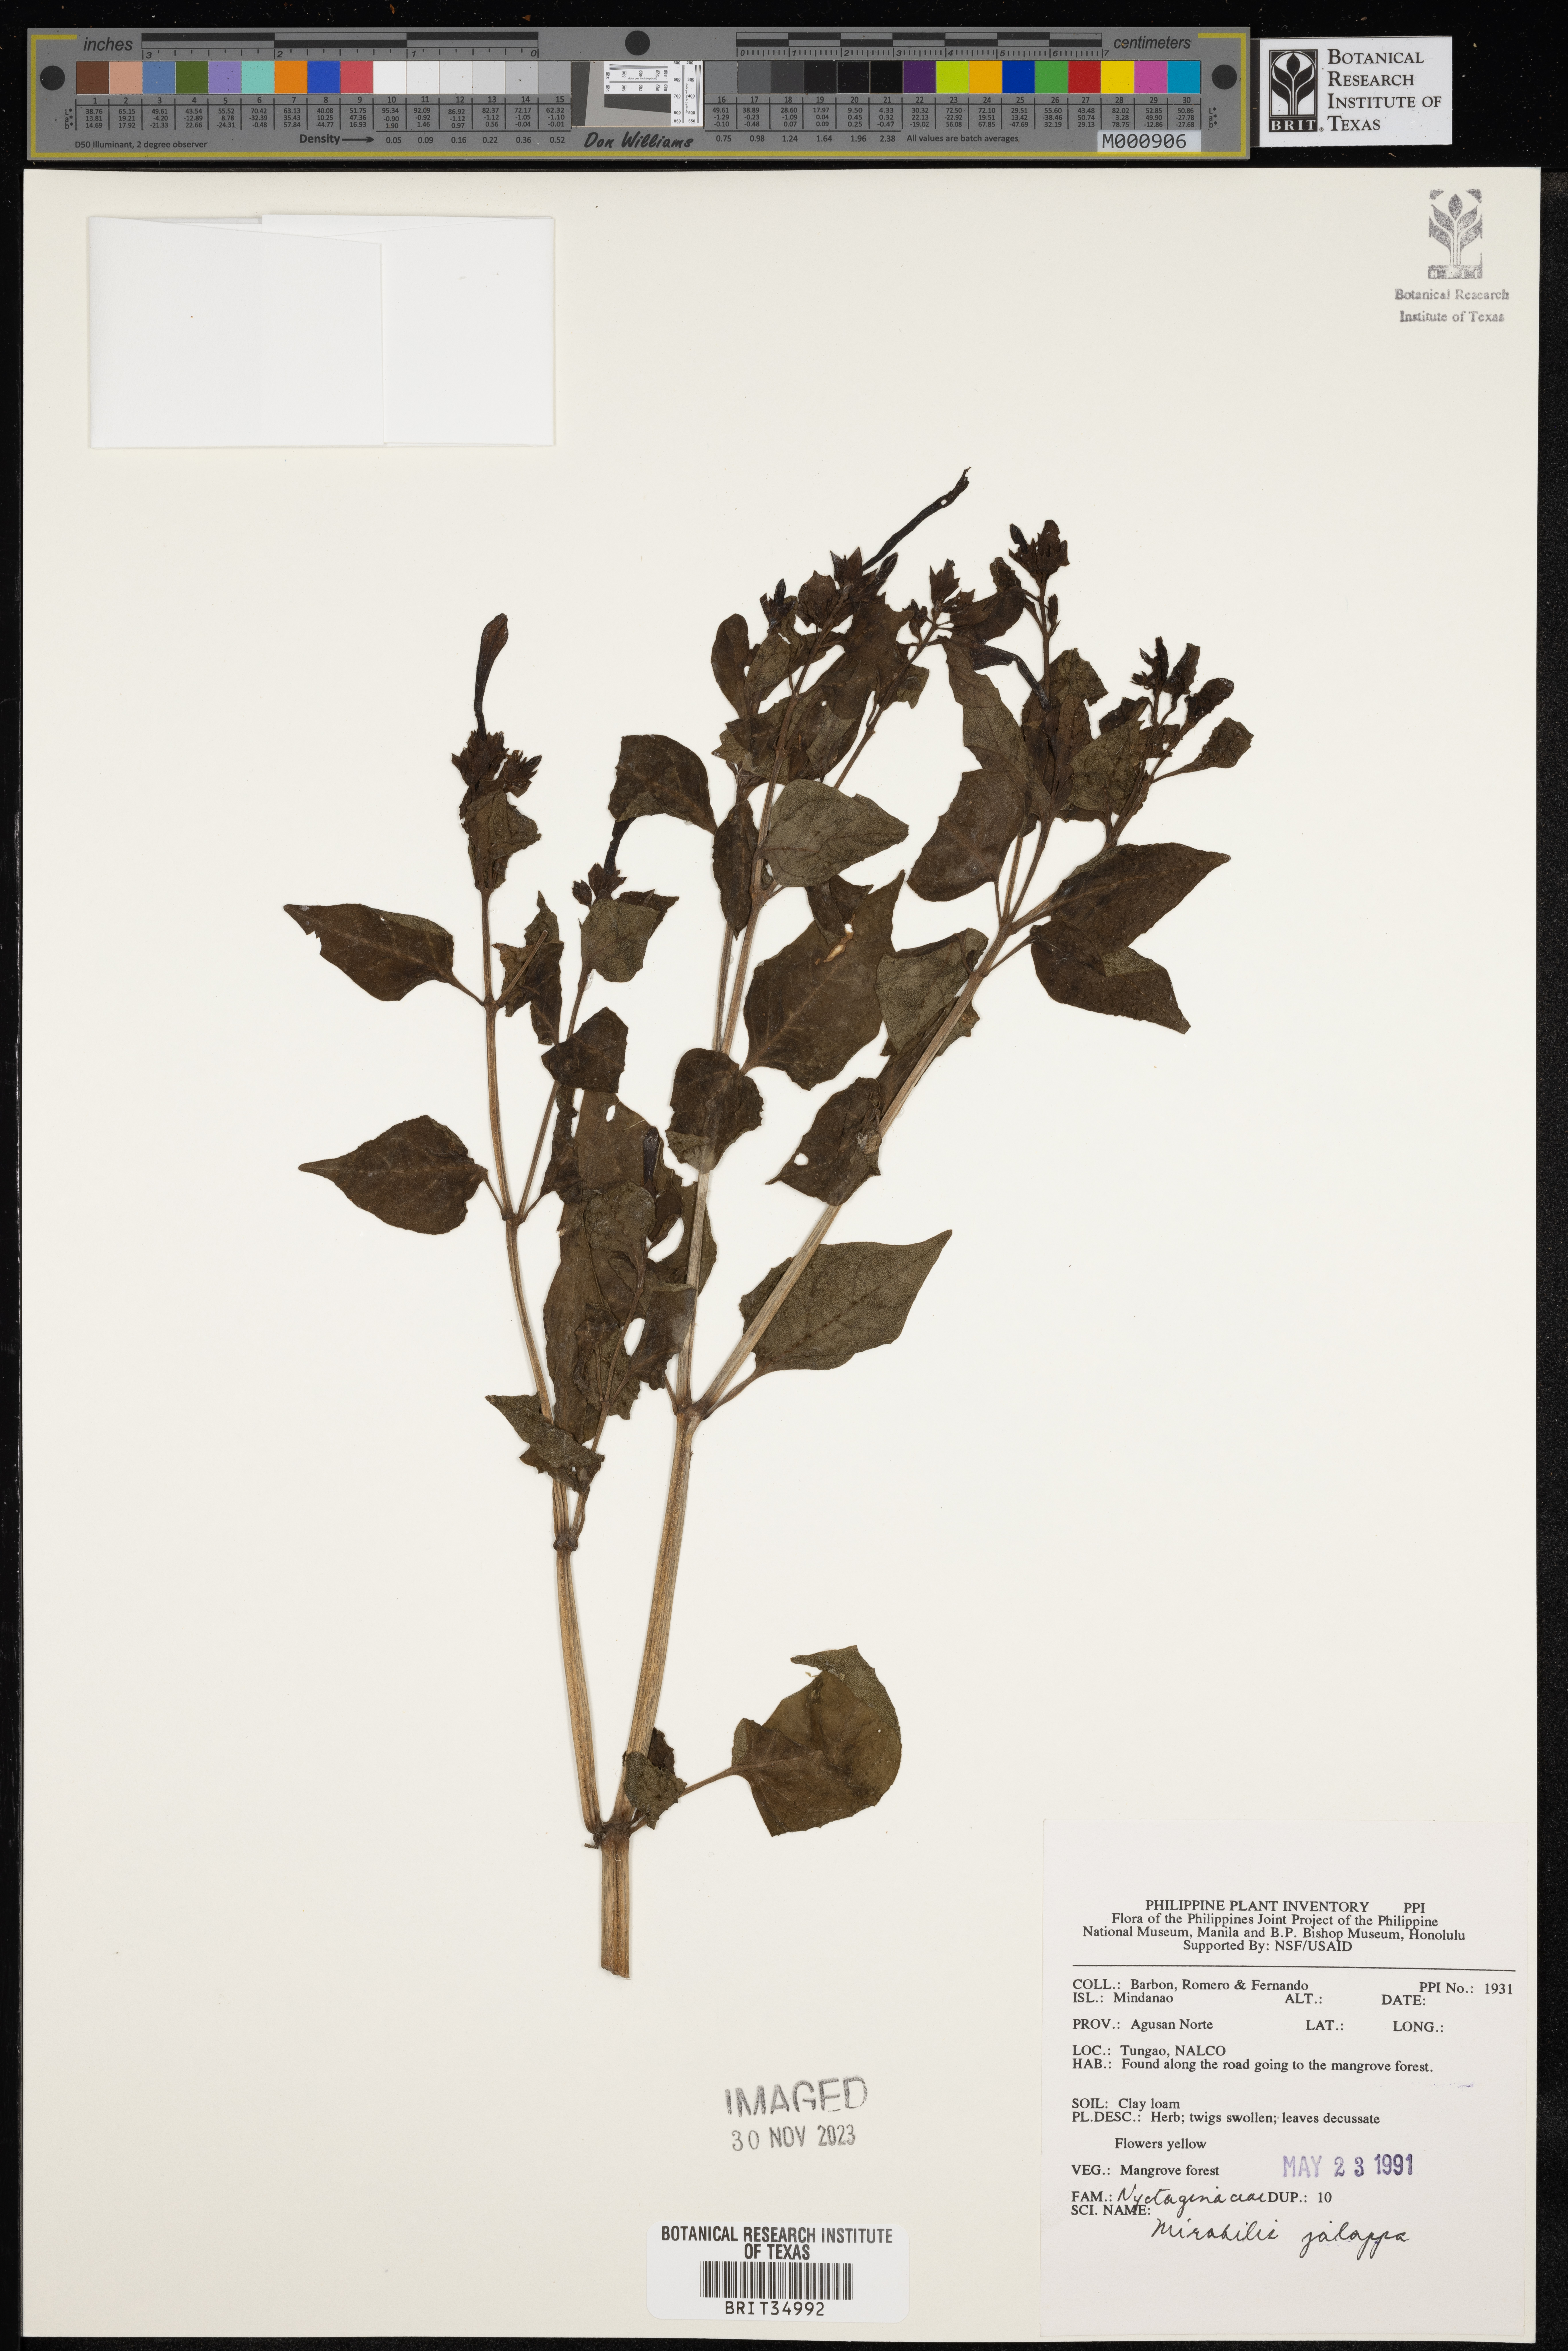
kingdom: Plantae
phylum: Tracheophyta
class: Magnoliopsida
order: Caryophyllales
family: Nyctaginaceae
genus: Mirabilis
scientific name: Mirabilis jalapa
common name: Marvel-of-peru
